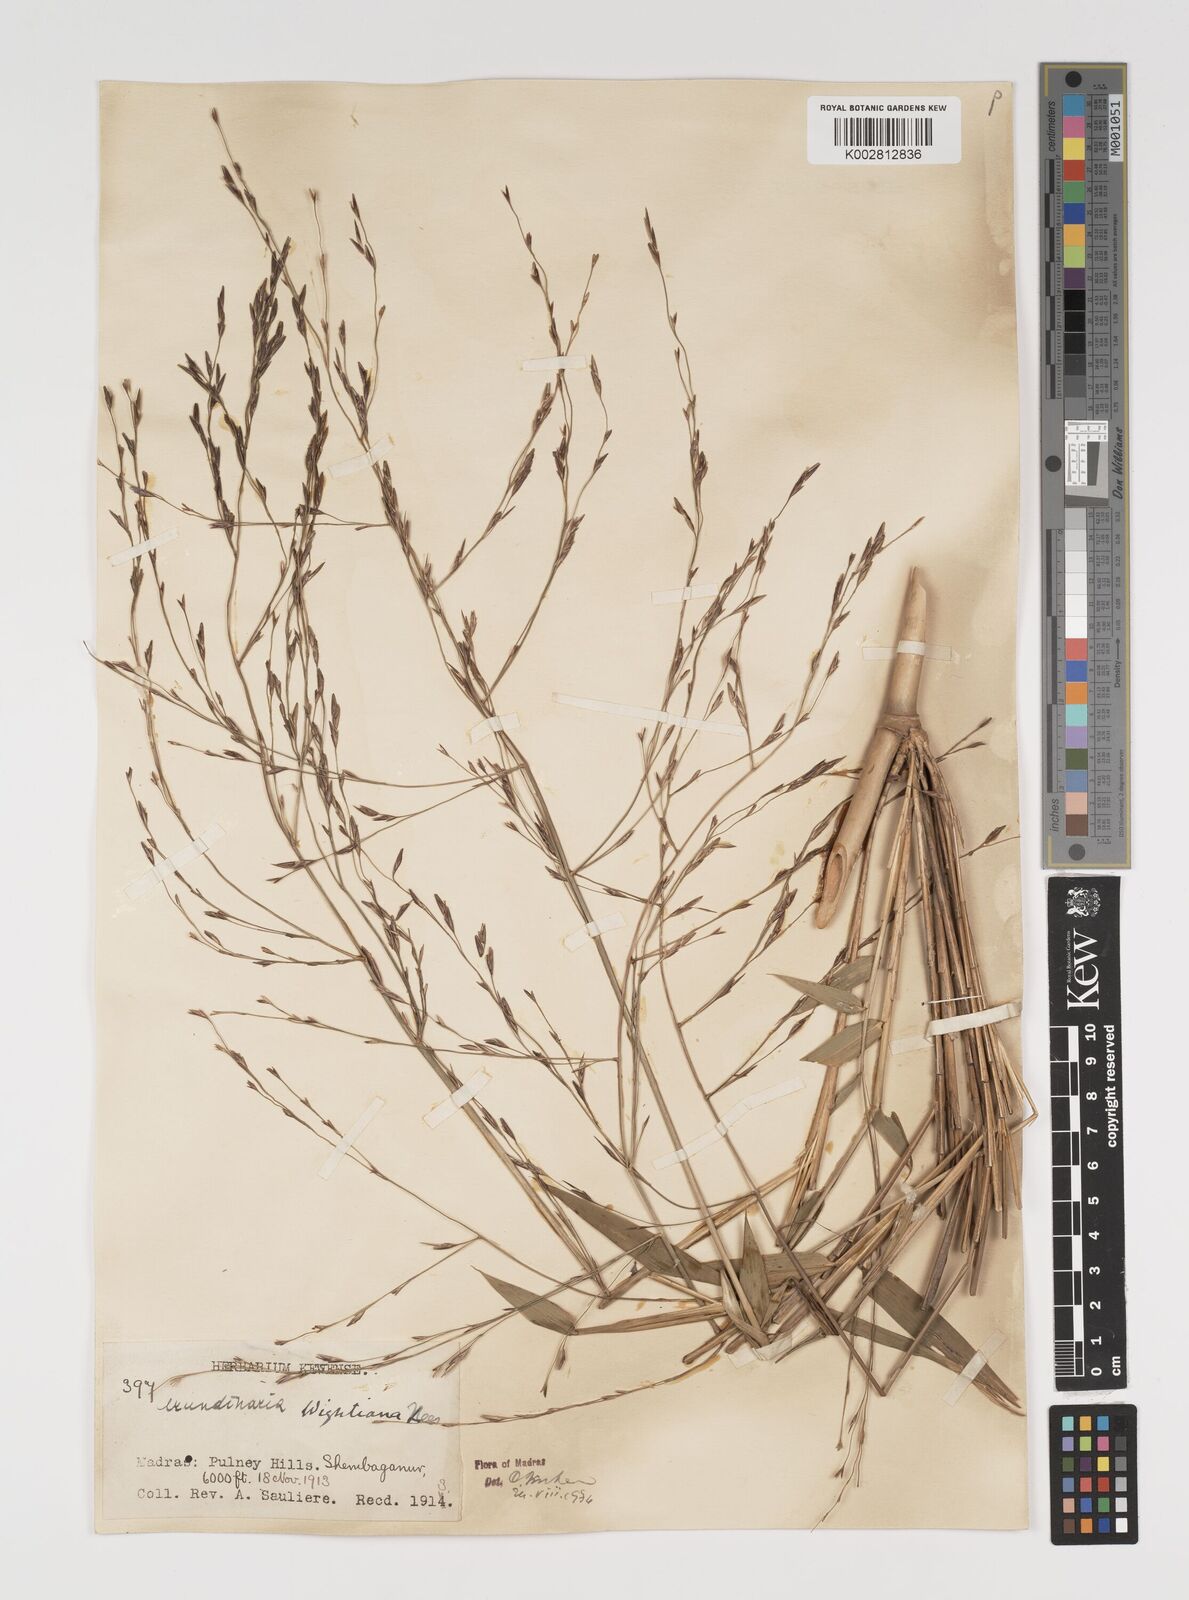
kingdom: Plantae
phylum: Tracheophyta
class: Liliopsida
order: Poales
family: Poaceae
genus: Kuruna
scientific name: Kuruna walkeriana
